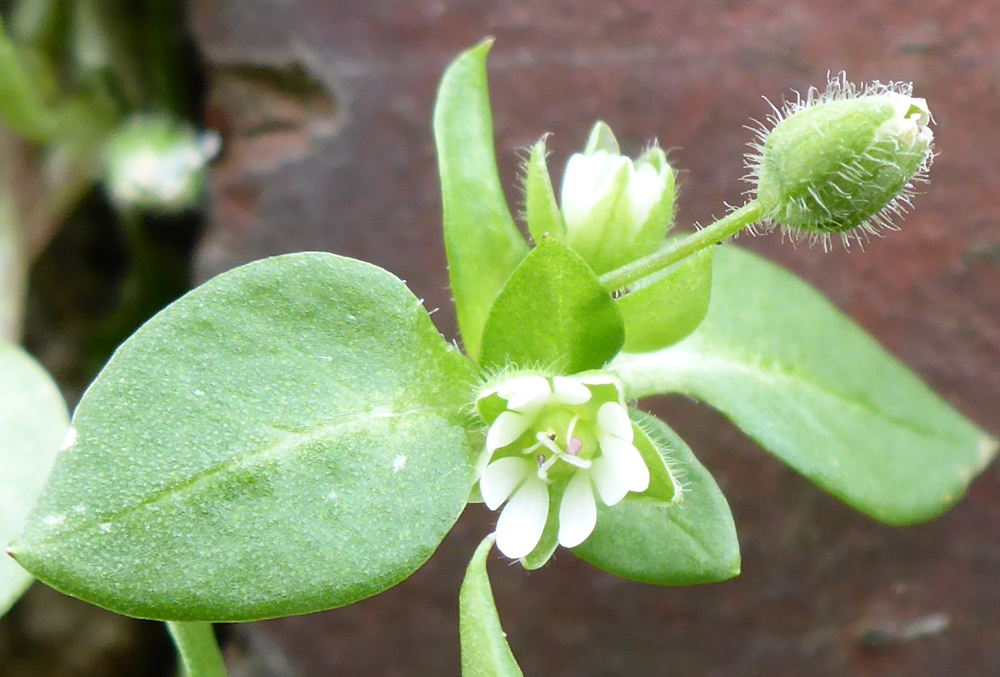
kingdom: Plantae
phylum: Tracheophyta
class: Magnoliopsida
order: Caryophyllales
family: Caryophyllaceae
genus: Stellaria
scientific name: Stellaria media
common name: Common chickweed
